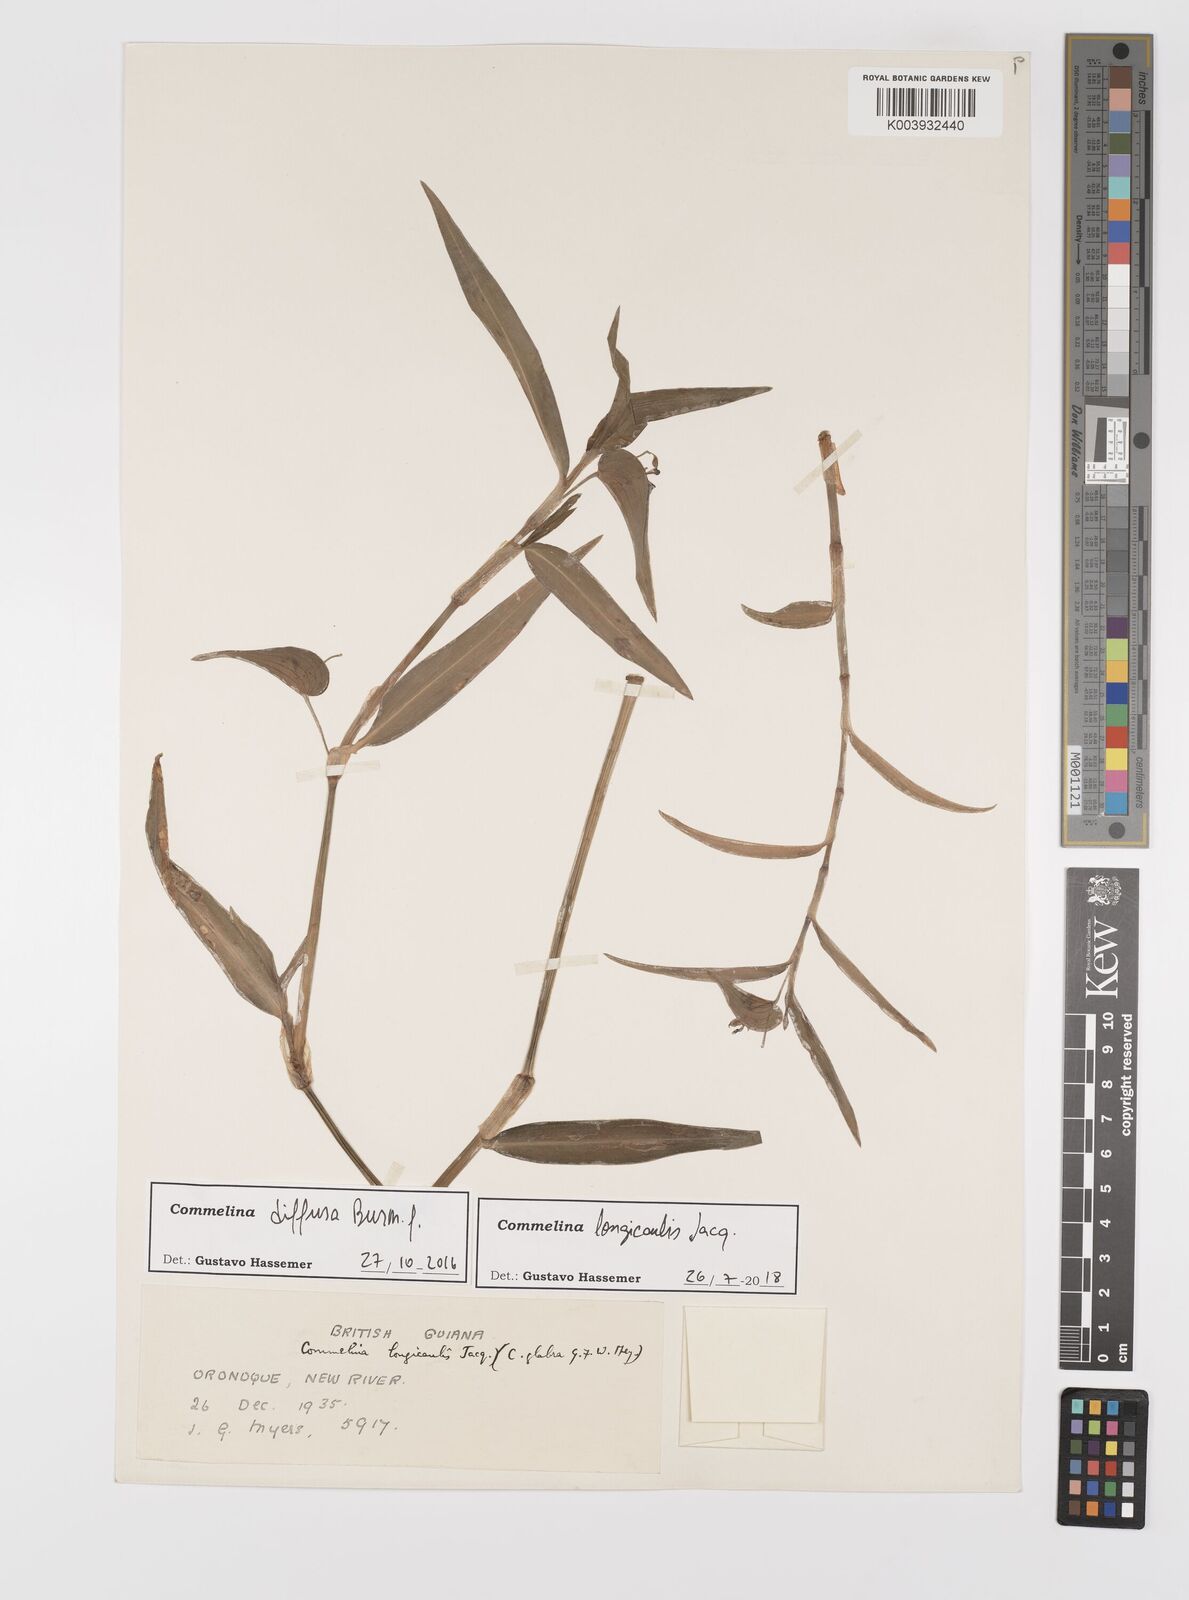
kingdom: Plantae
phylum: Tracheophyta
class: Liliopsida
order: Commelinales
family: Commelinaceae
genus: Commelina
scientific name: Commelina diffusa
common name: Climbing dayflower
